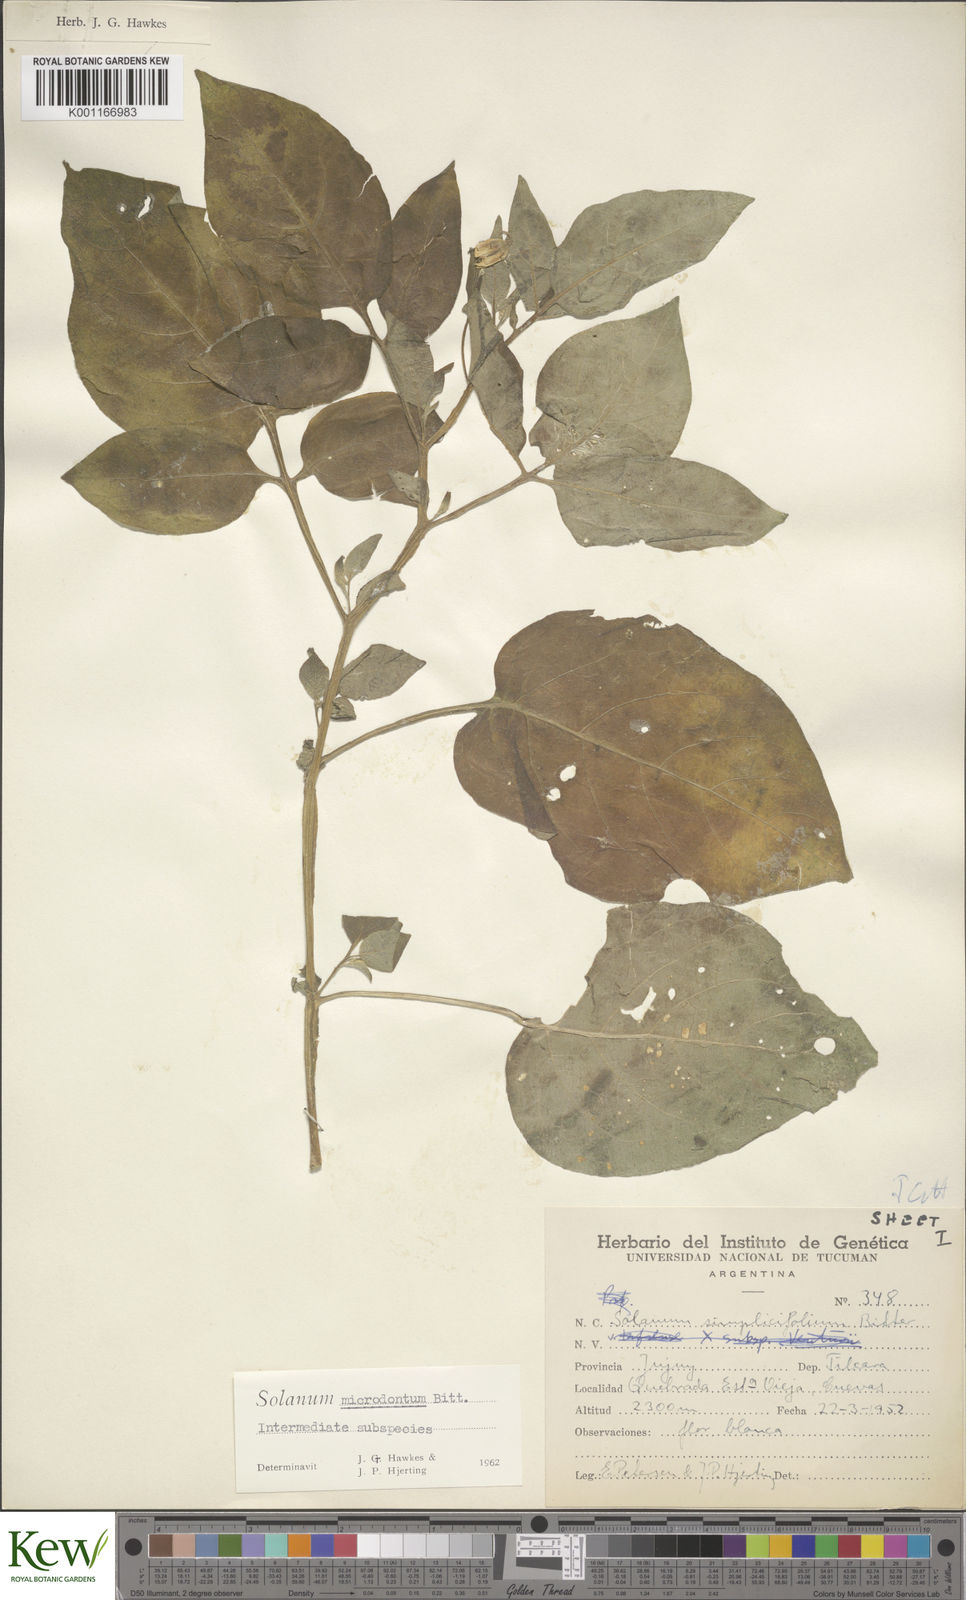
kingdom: Plantae
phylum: Tracheophyta
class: Magnoliopsida
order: Solanales
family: Solanaceae
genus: Solanum
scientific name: Solanum microdontum
